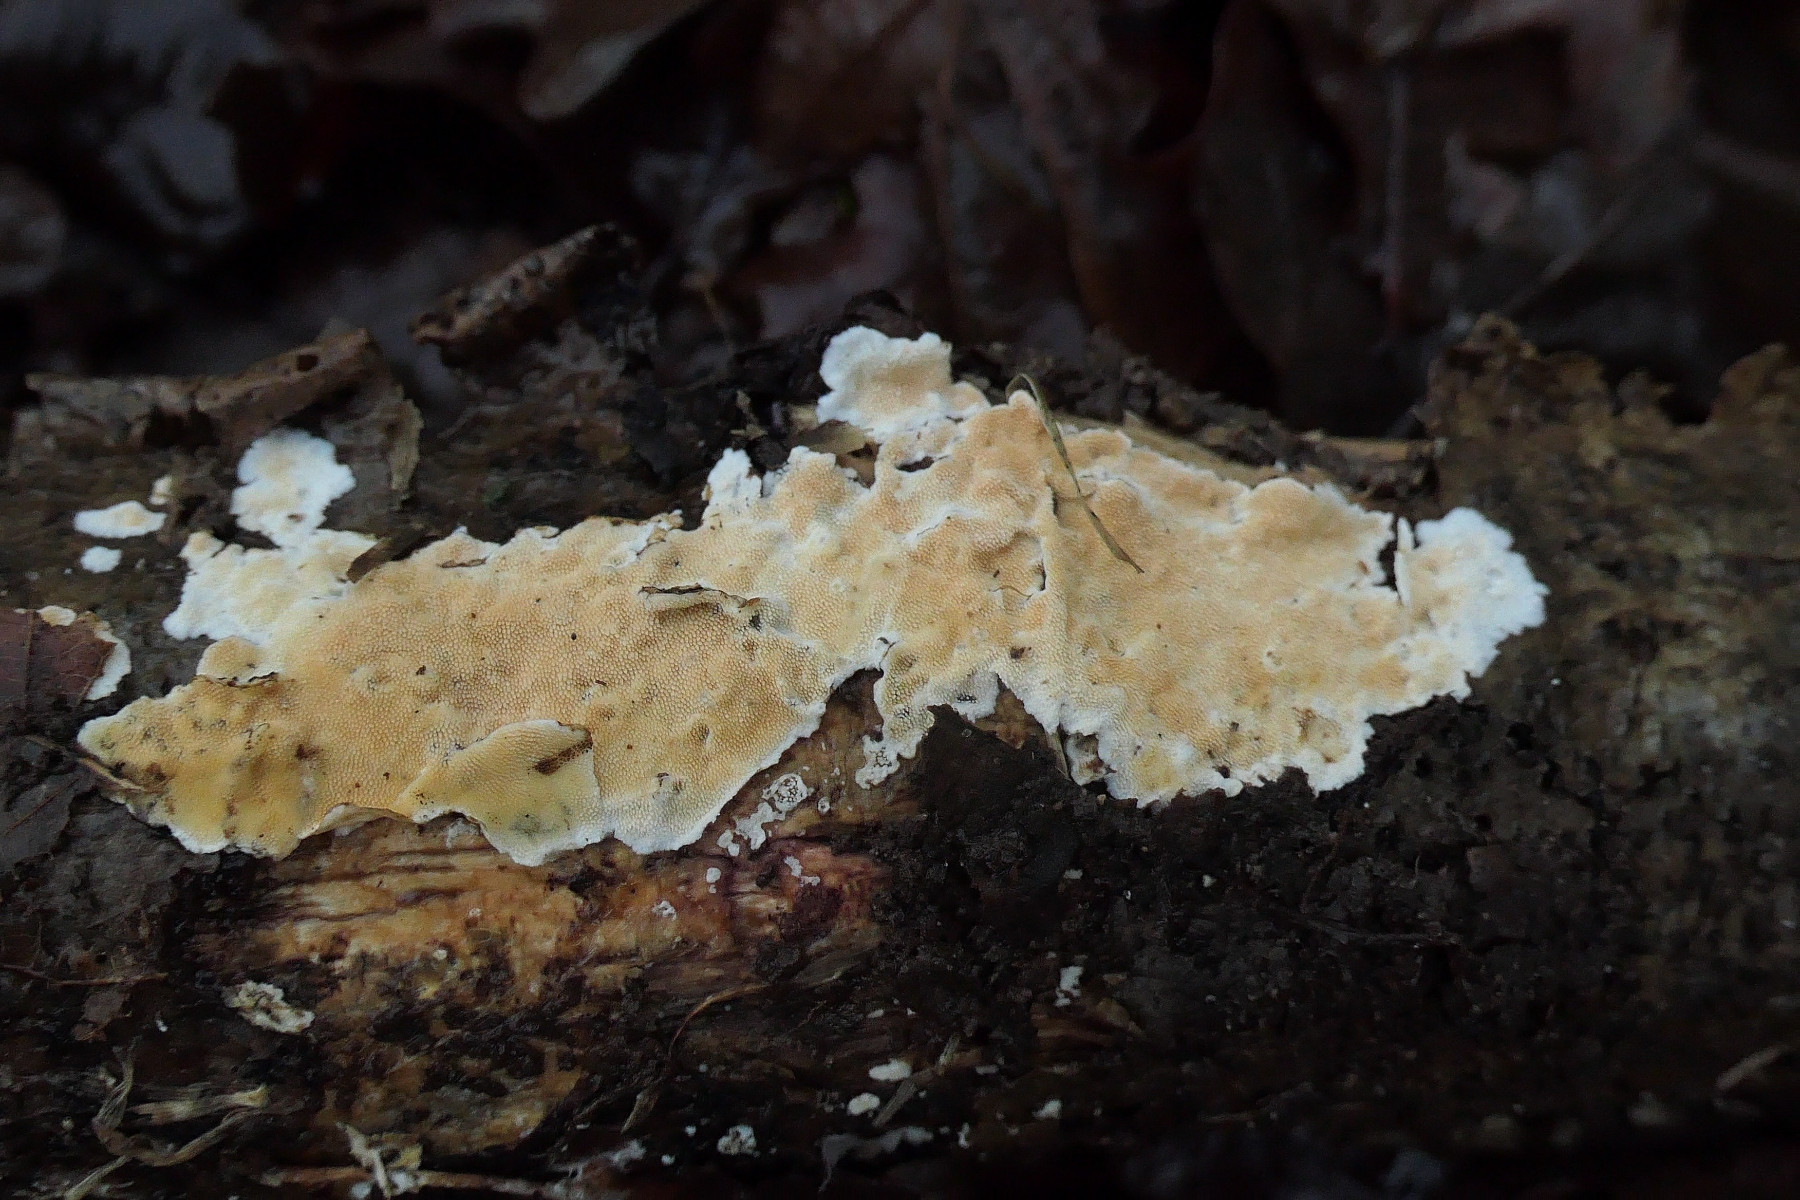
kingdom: Fungi
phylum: Basidiomycota
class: Agaricomycetes
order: Polyporales
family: Steccherinaceae
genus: Steccherinum
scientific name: Steccherinum ochraceum
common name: almindelig skønpig
